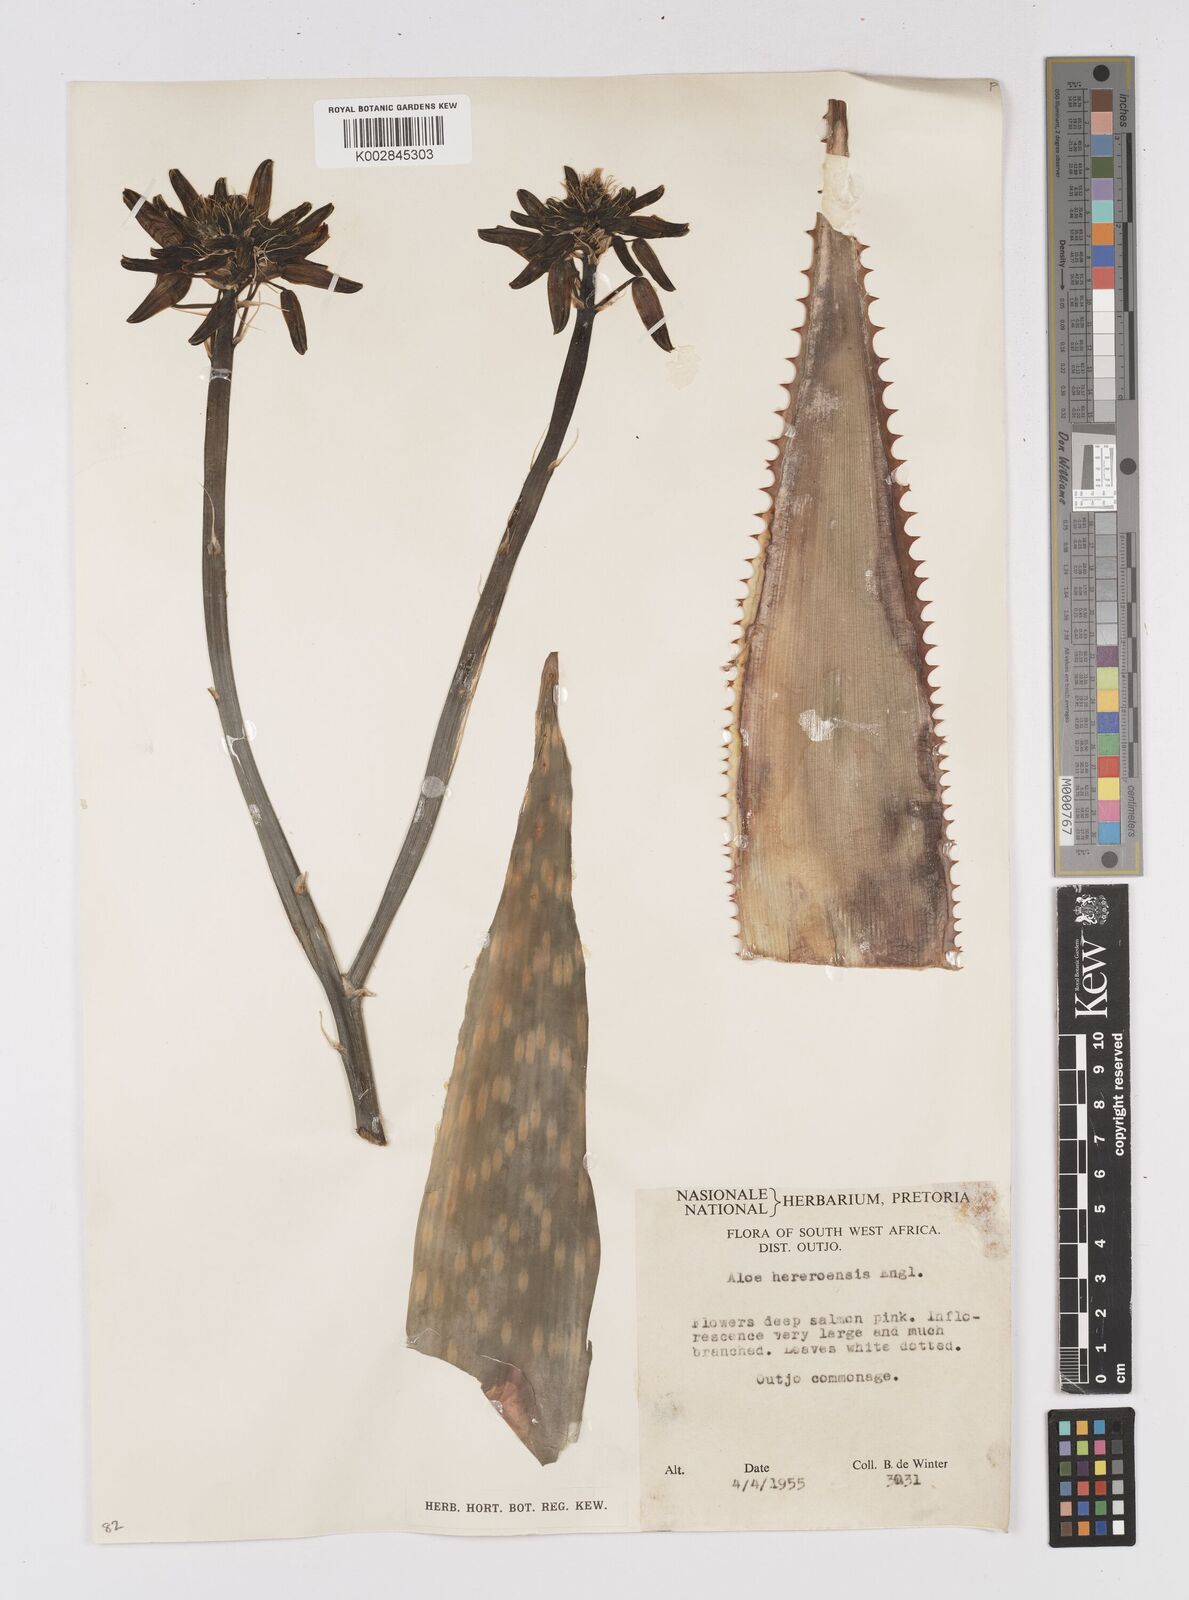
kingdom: Plantae
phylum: Tracheophyta
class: Liliopsida
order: Asparagales
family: Asphodelaceae
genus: Aloe
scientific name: Aloe hereroensis
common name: Herero aloe
